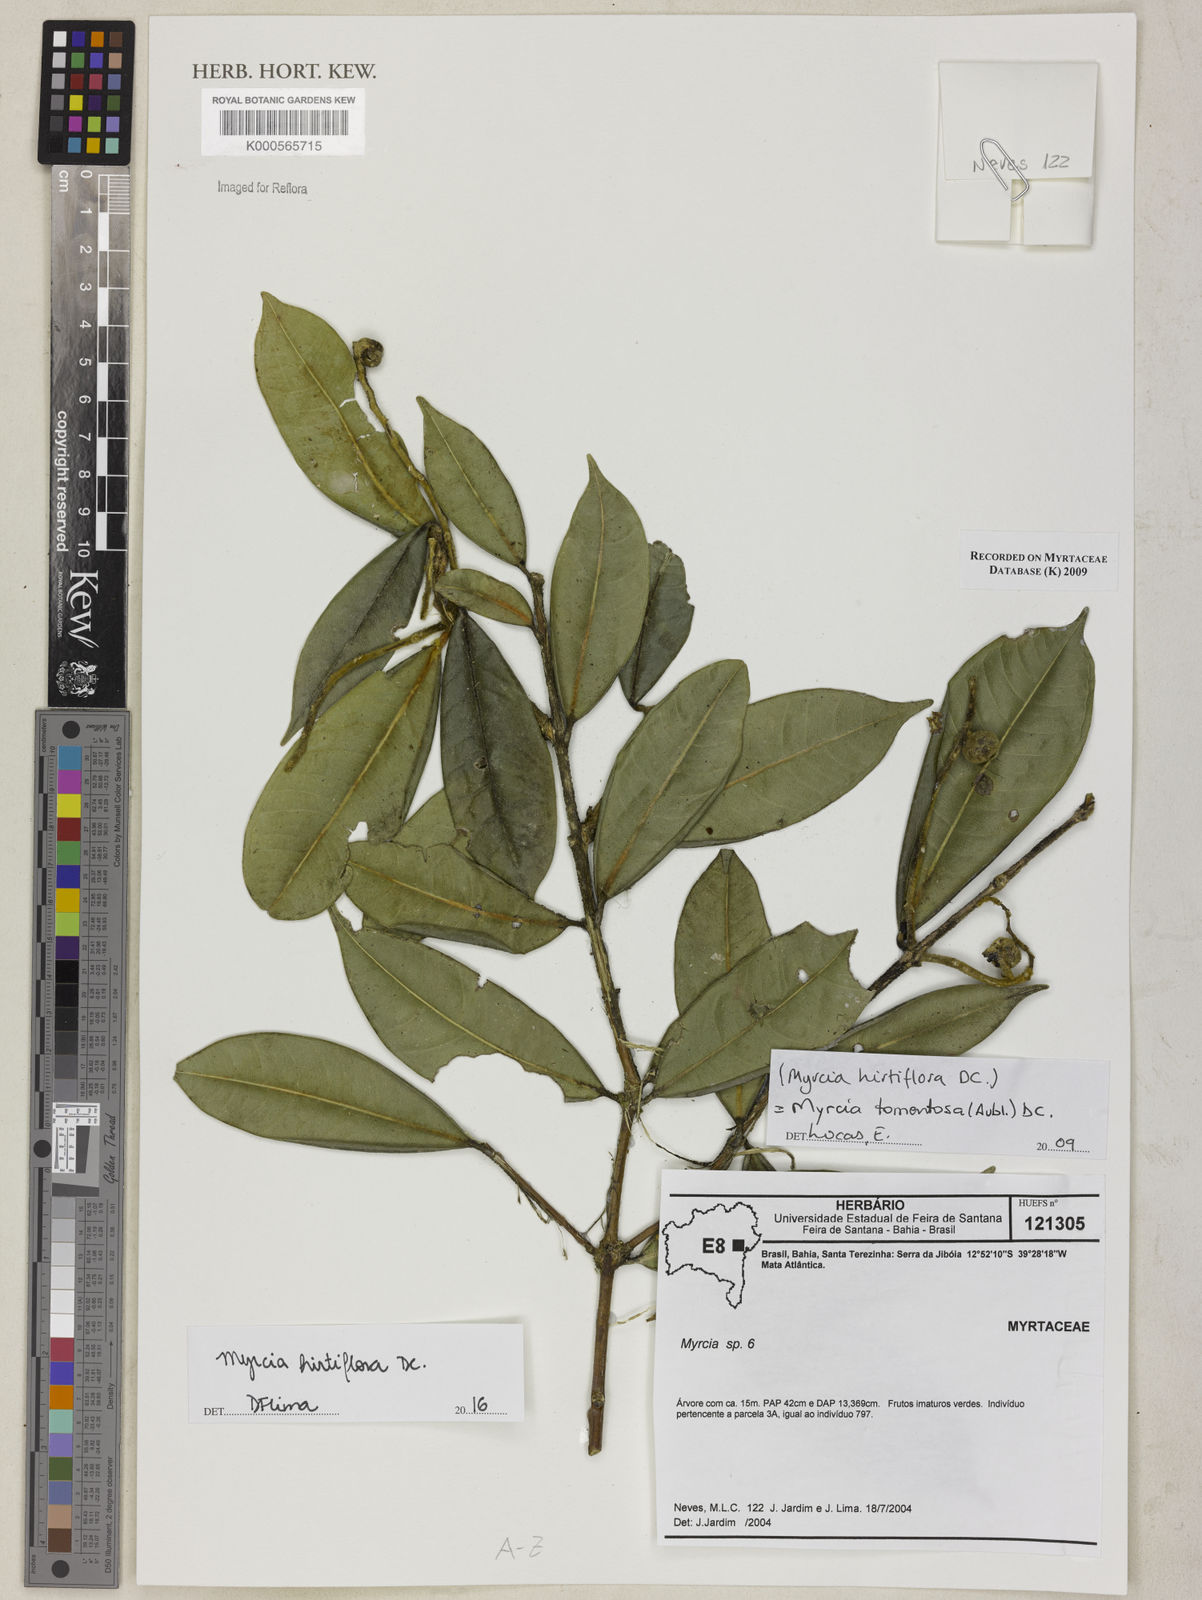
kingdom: Plantae
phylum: Tracheophyta
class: Magnoliopsida
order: Myrtales
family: Myrtaceae
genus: Myrcia
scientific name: Myrcia tomentosa
